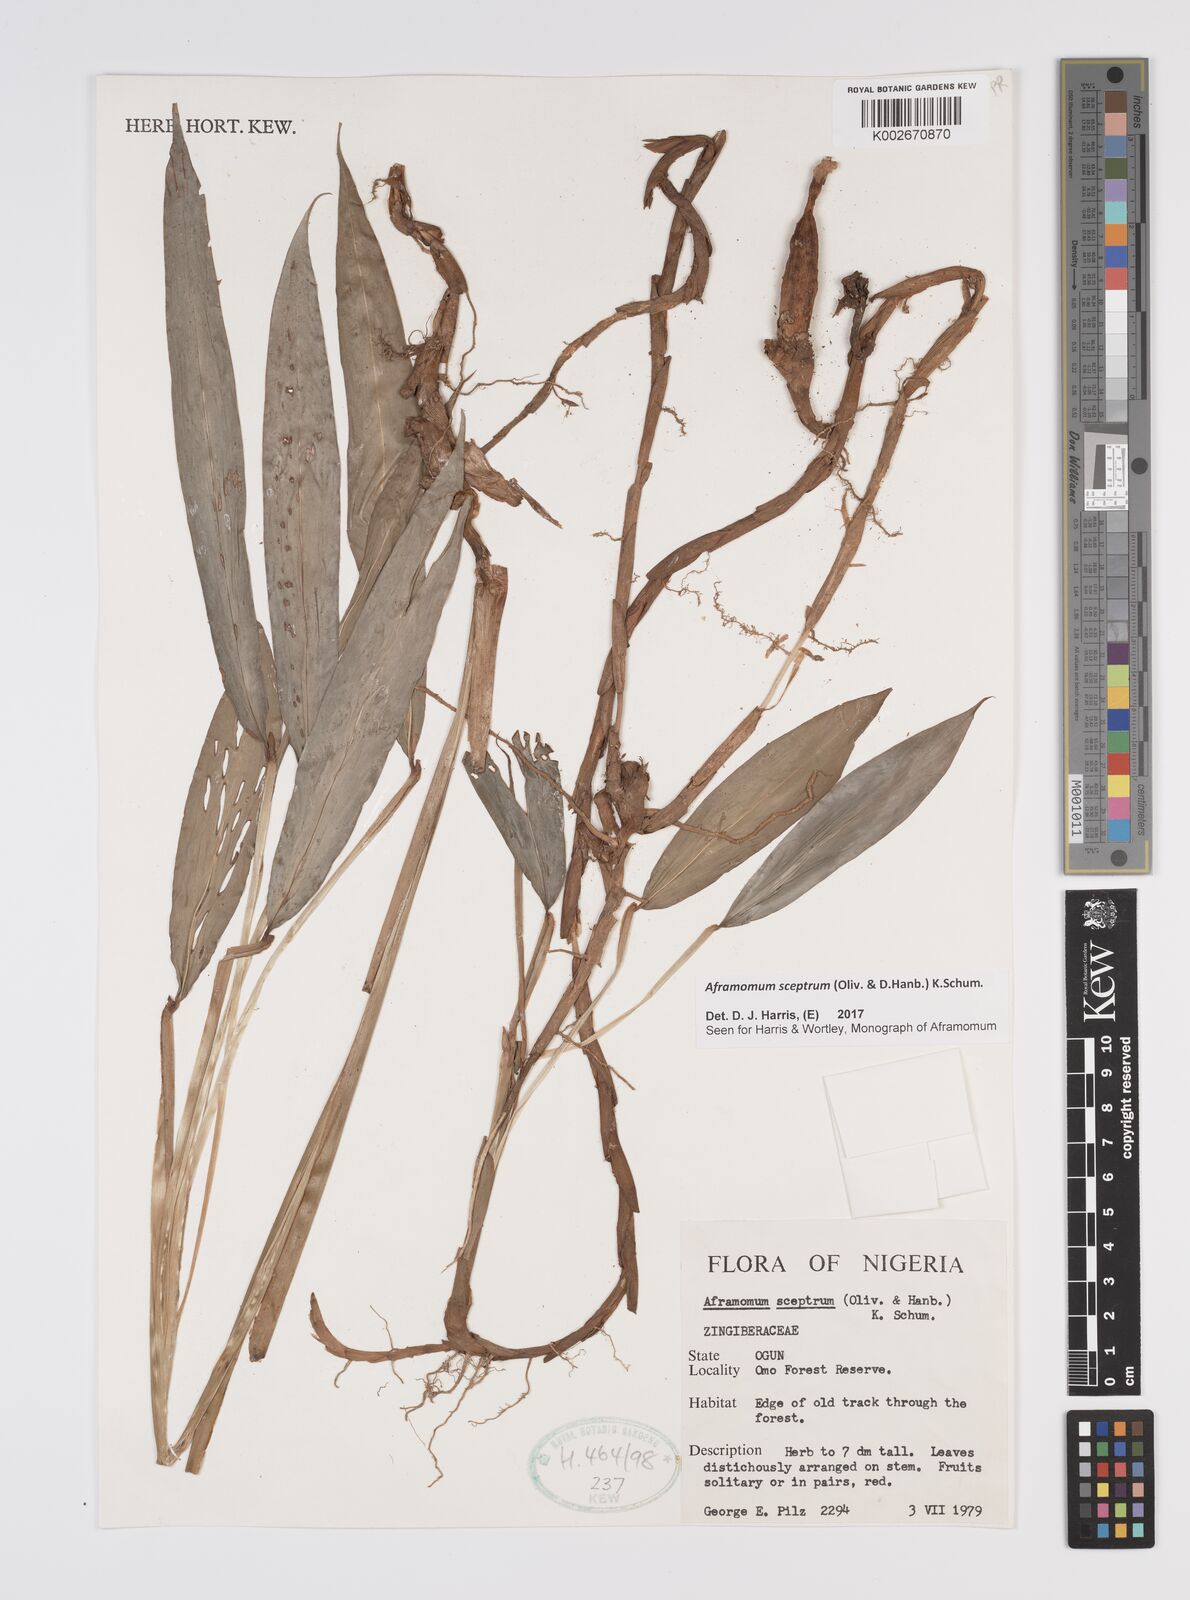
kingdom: Plantae
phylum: Tracheophyta
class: Liliopsida
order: Zingiberales
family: Zingiberaceae
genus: Aframomum
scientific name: Aframomum cereum
